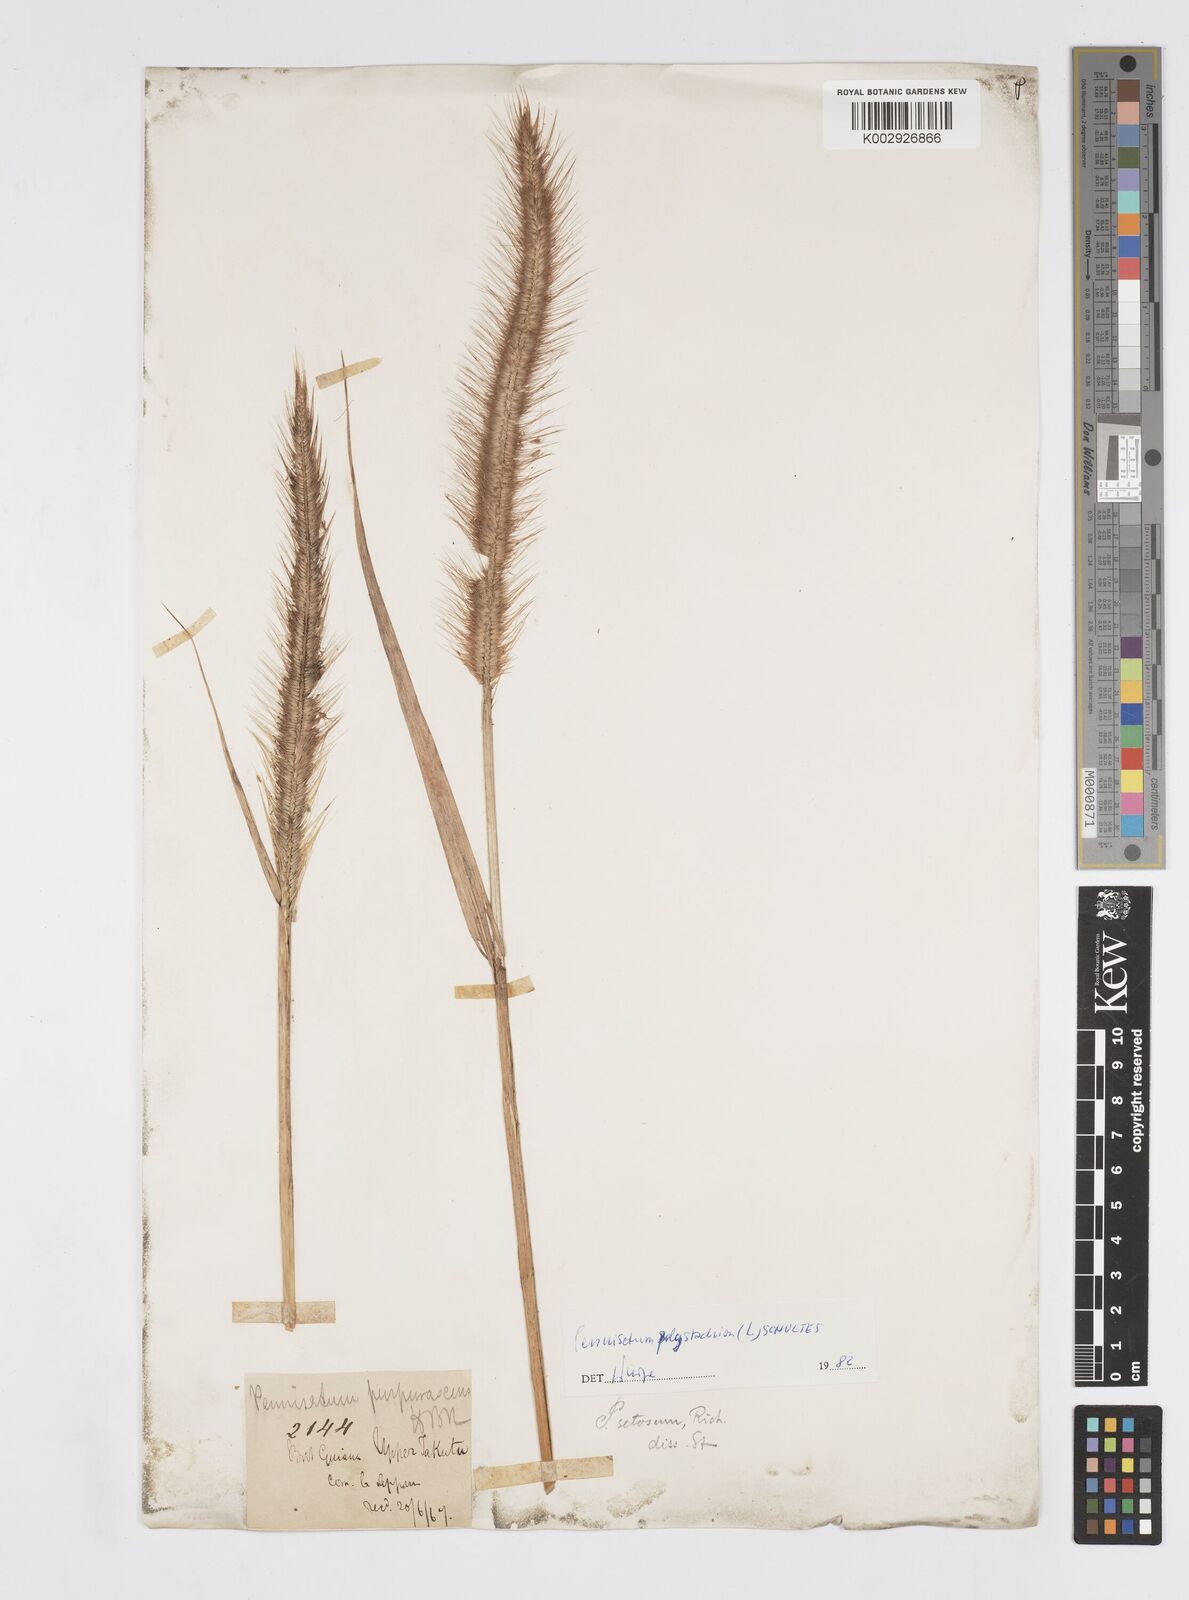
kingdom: Plantae
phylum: Tracheophyta
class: Liliopsida
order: Poales
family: Poaceae
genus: Cenchrus
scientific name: Cenchrus setosus
